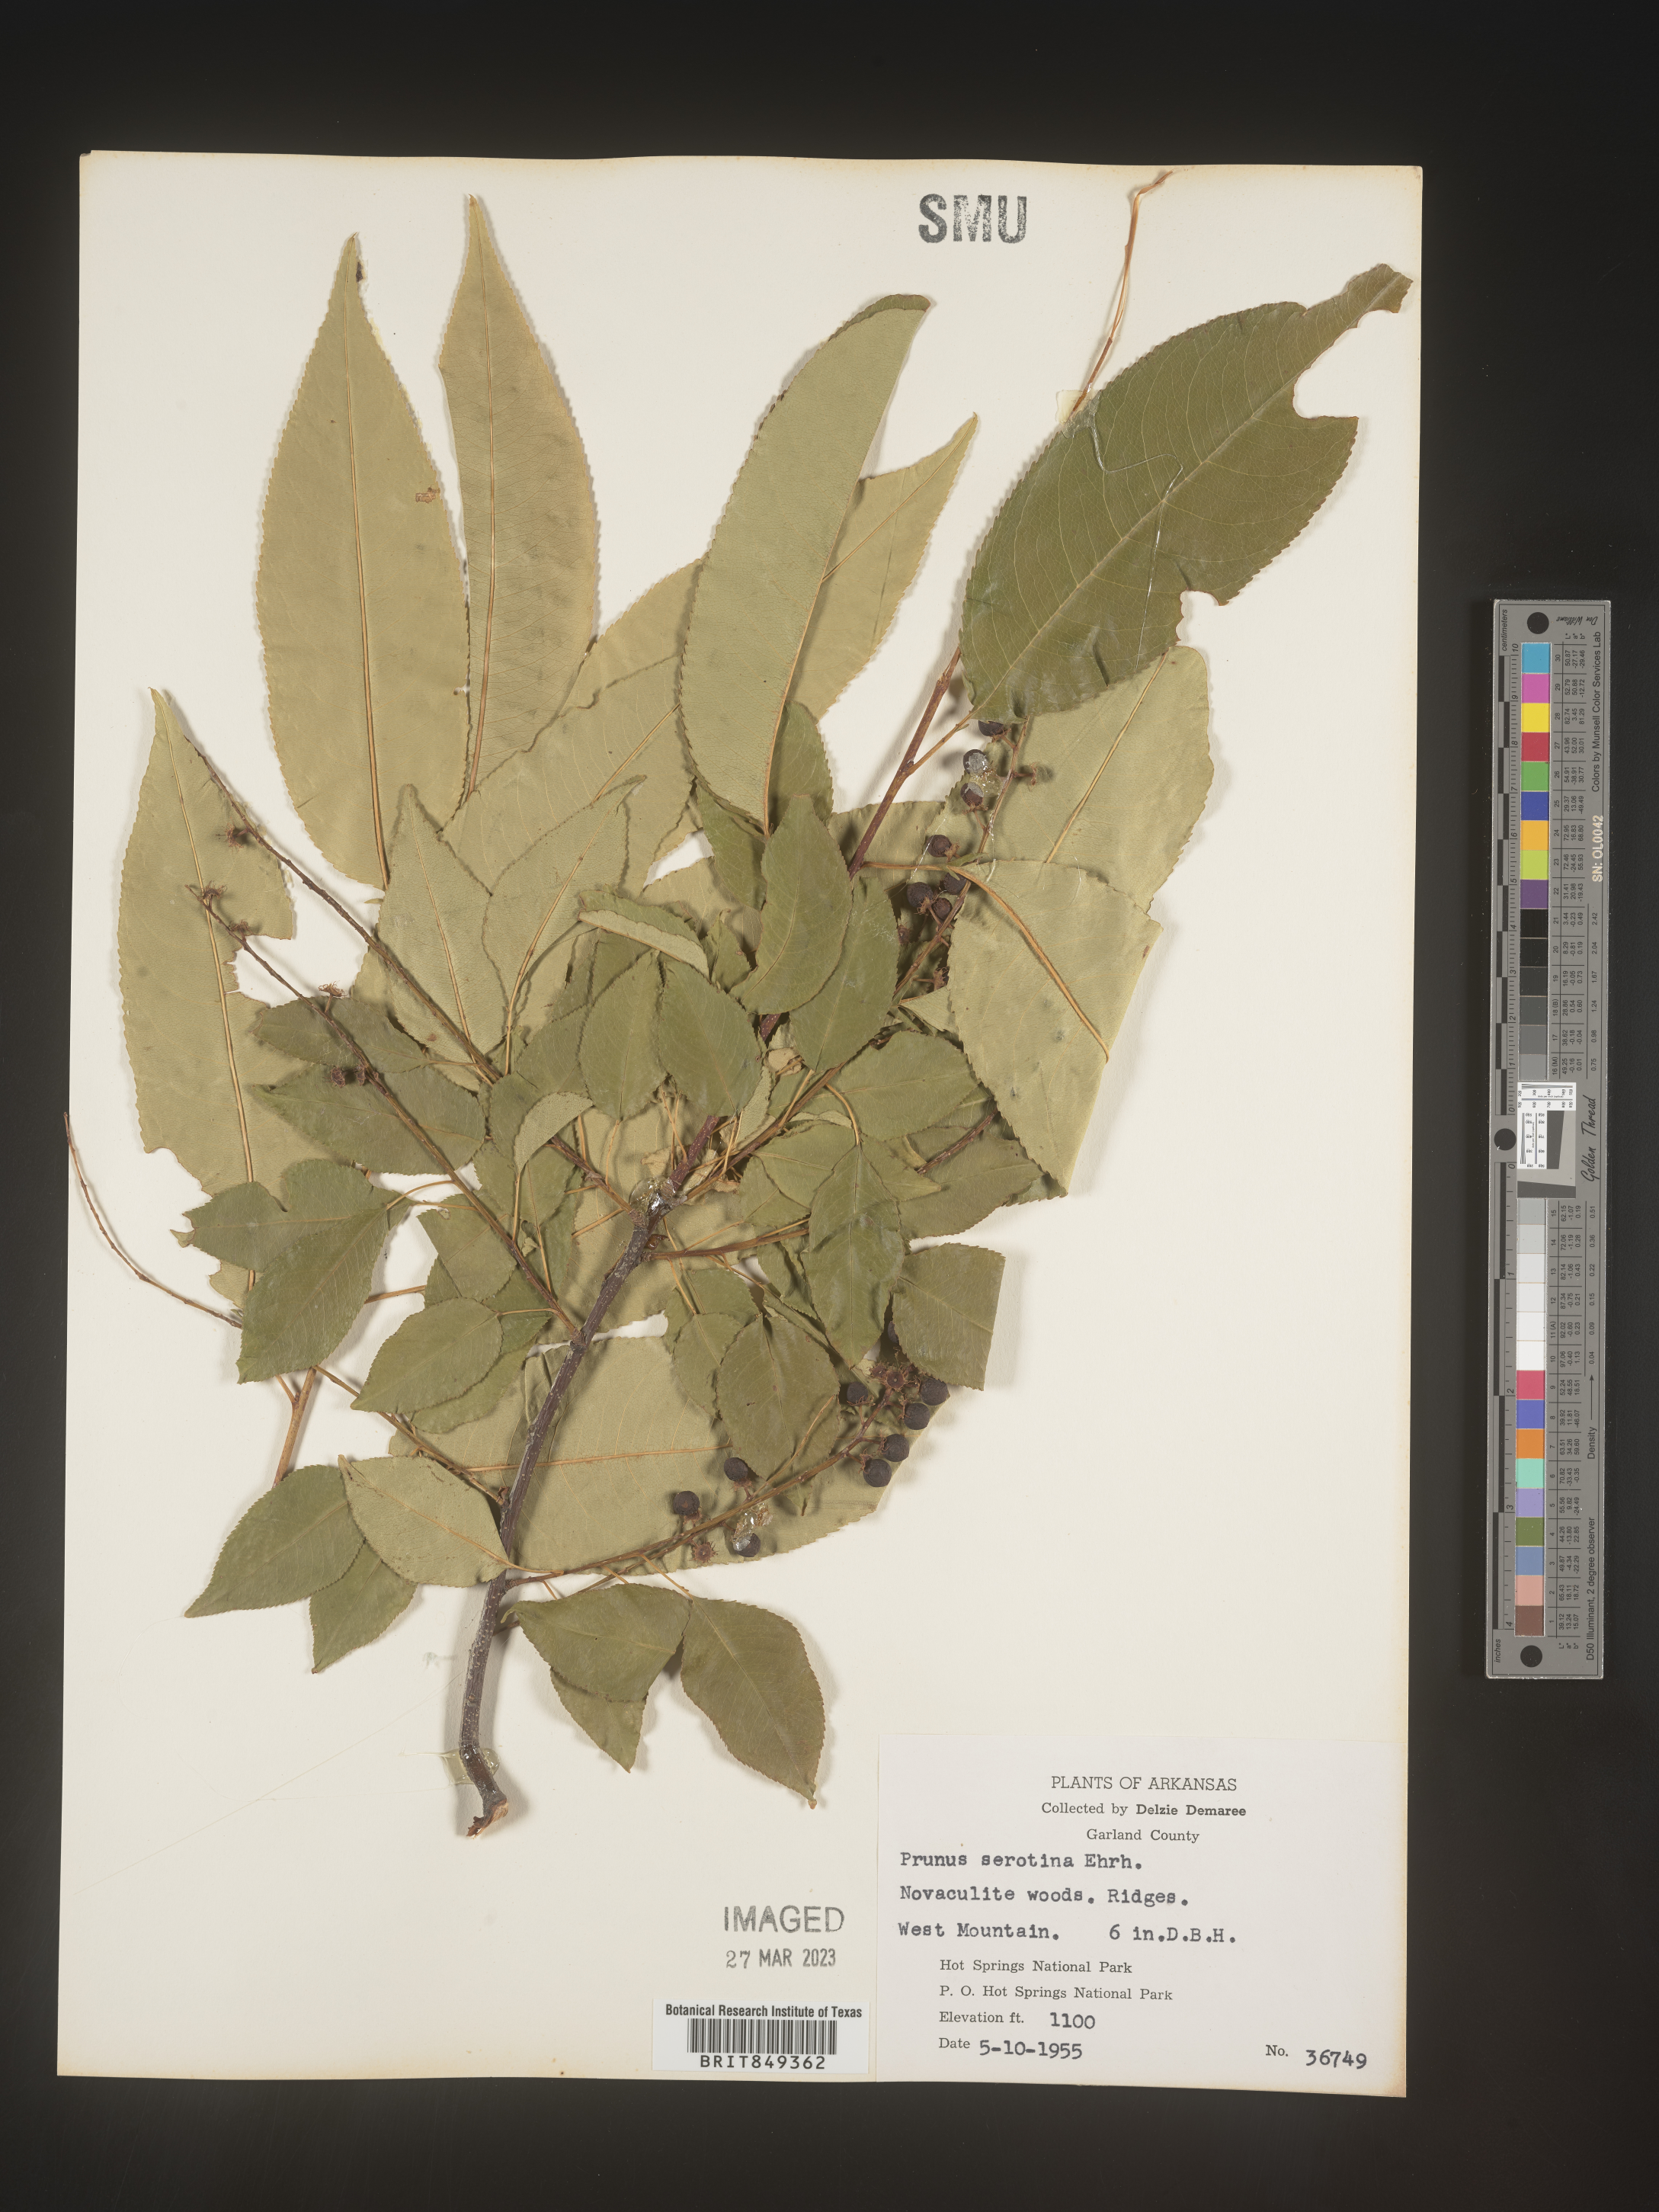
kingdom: Plantae
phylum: Tracheophyta
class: Magnoliopsida
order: Rosales
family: Rosaceae
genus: Prunus
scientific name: Prunus serotina
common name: Black cherry
